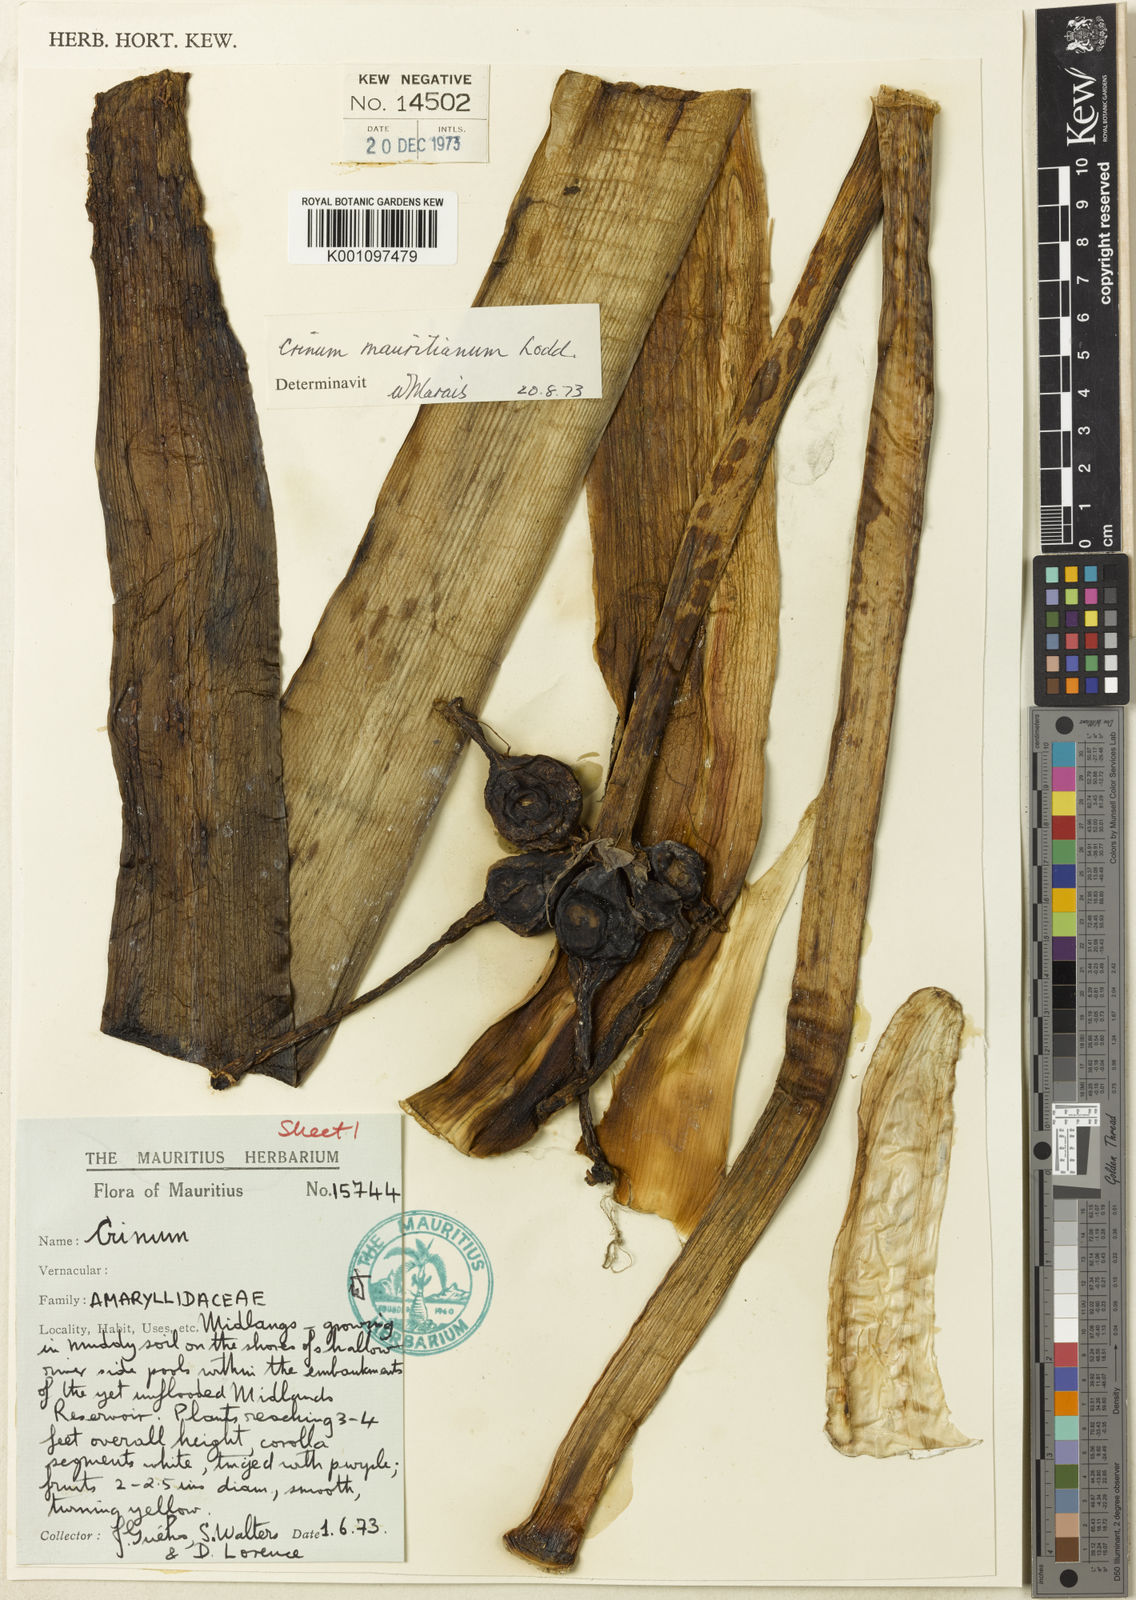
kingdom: Plantae
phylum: Tracheophyta
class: Liliopsida
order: Asparagales
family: Amaryllidaceae
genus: Crinum
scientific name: Crinum mauritianum
